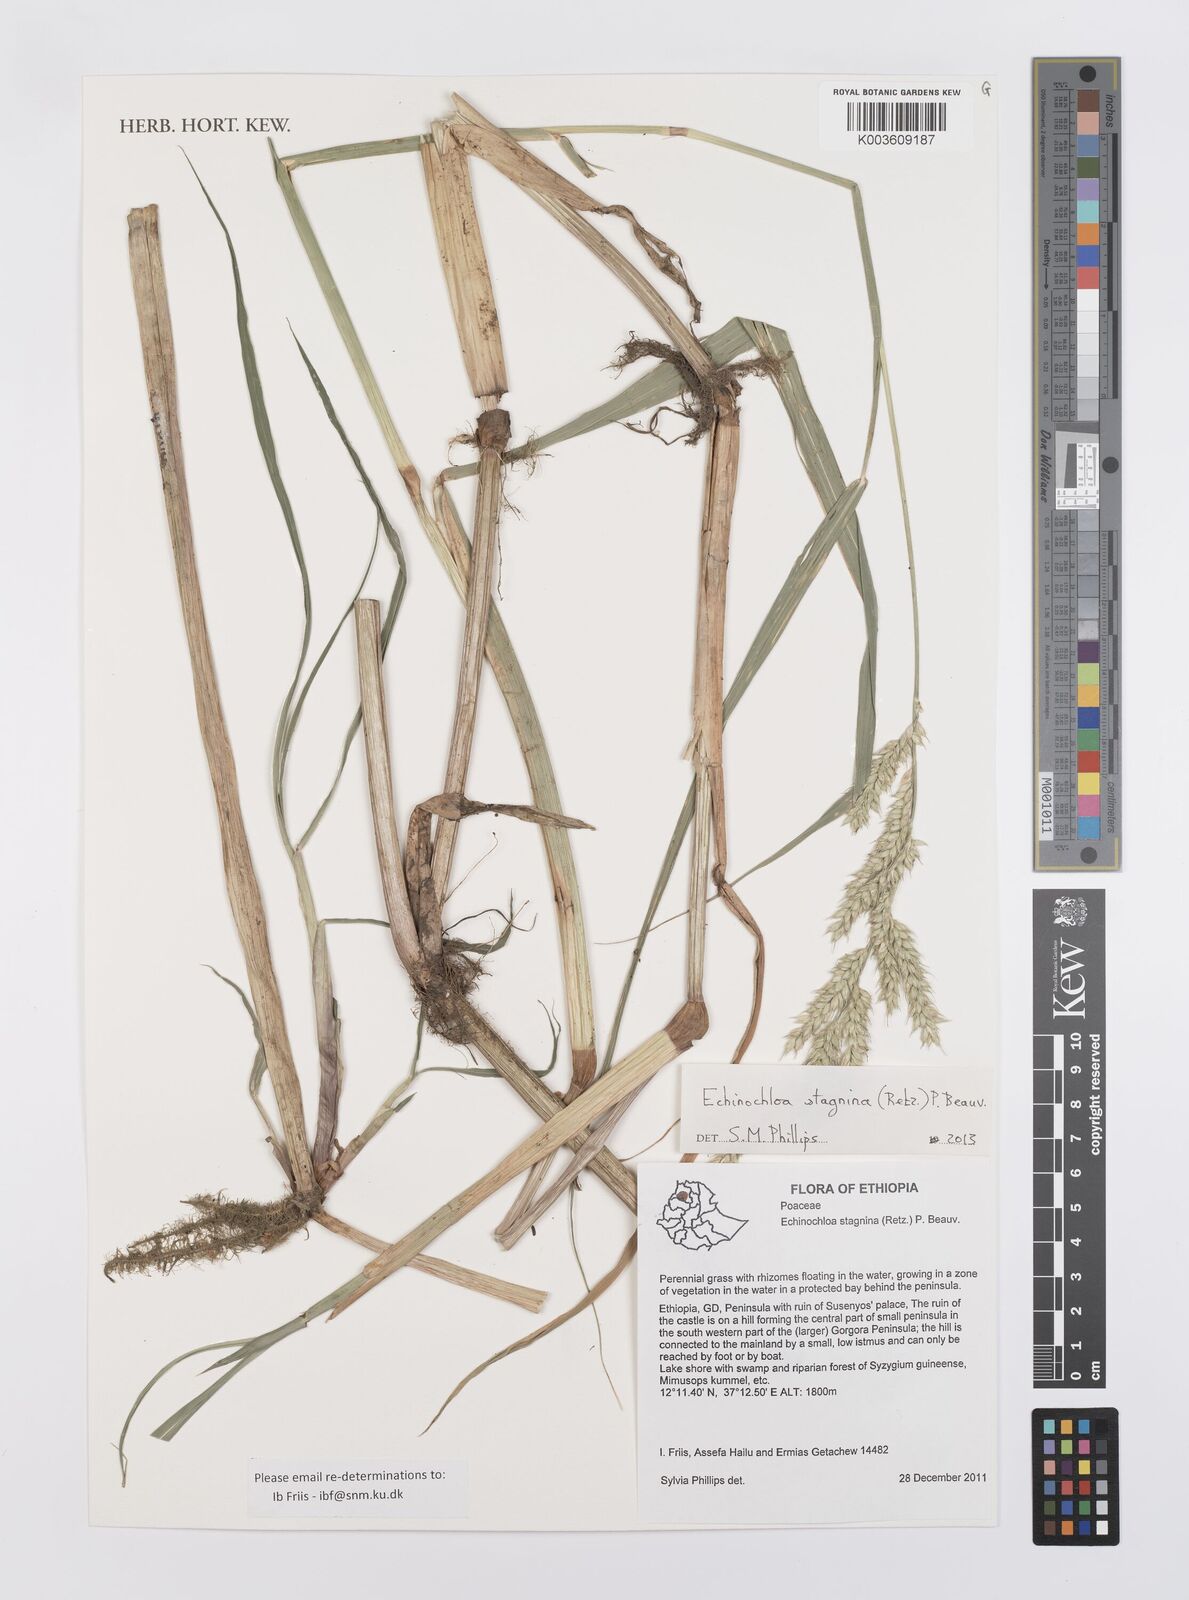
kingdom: Plantae
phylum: Tracheophyta
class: Liliopsida
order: Poales
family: Poaceae
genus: Echinochloa
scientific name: Echinochloa stagnina
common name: Burgu grass
